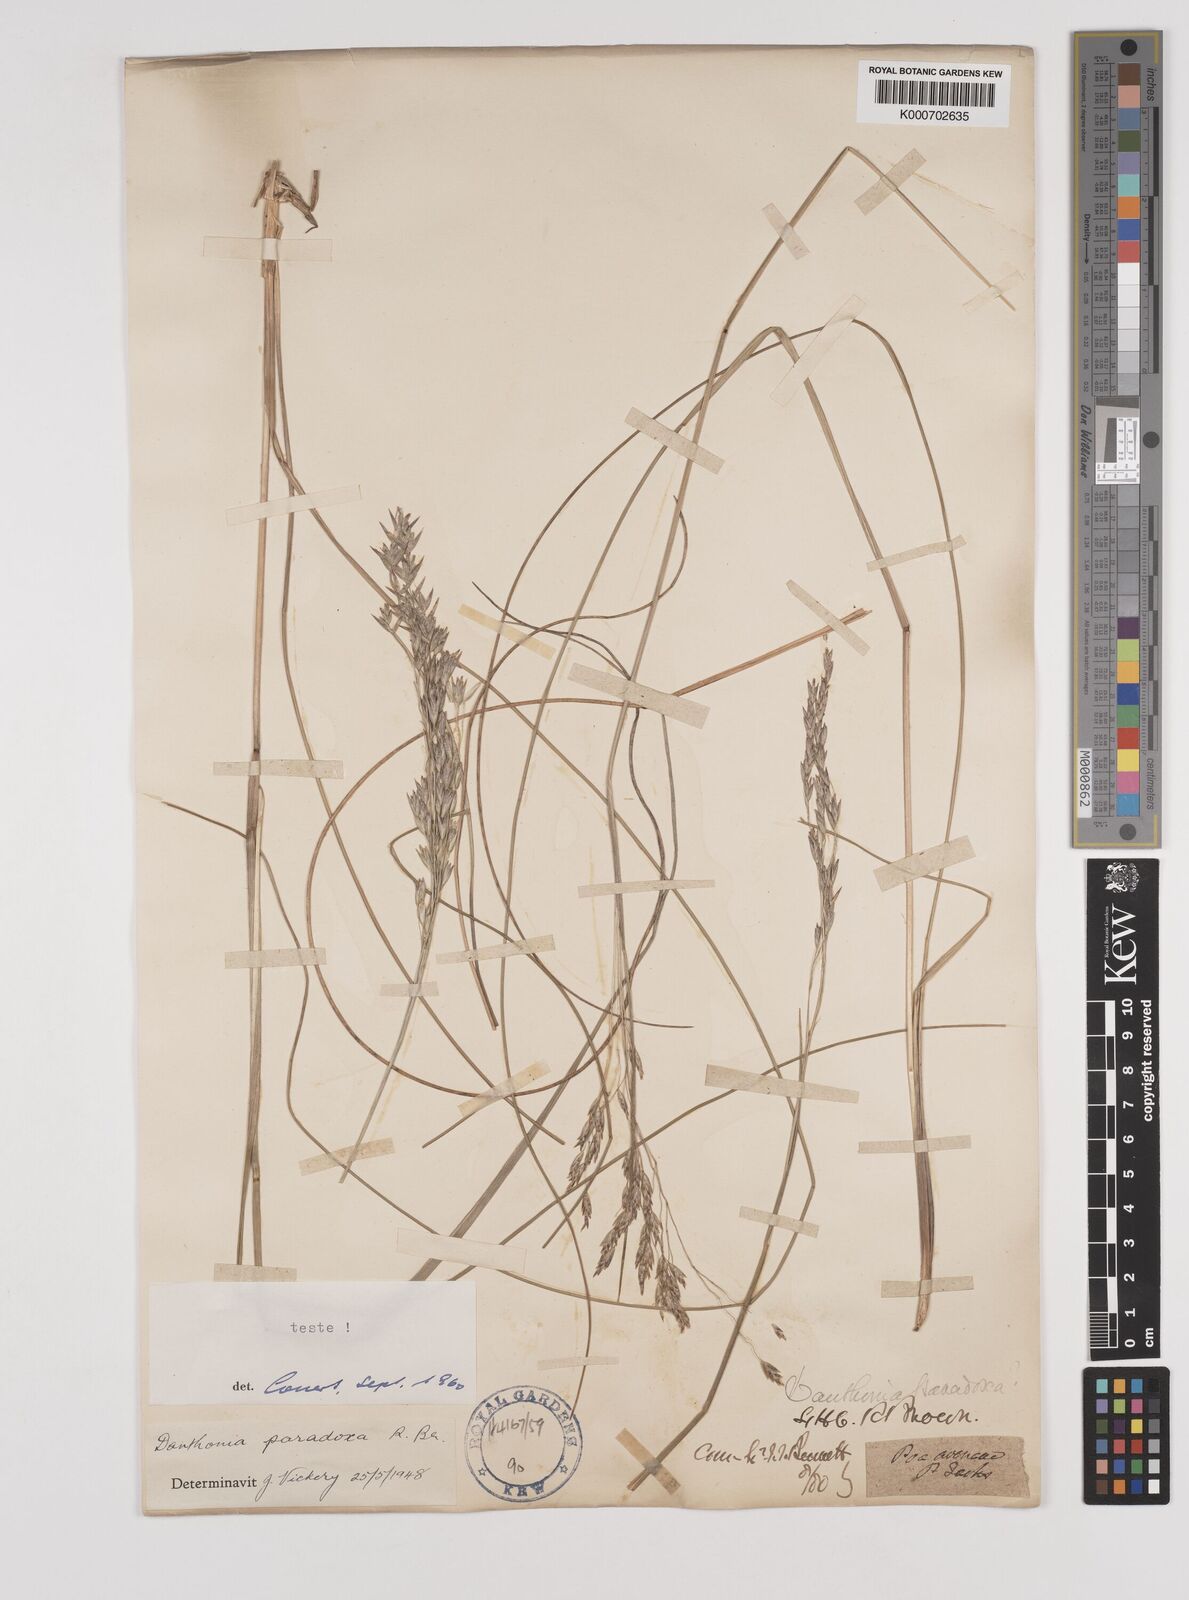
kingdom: Plantae
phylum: Tracheophyta
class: Liliopsida
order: Poales
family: Poaceae
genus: Plinthanthesis
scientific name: Plinthanthesis paradoxa
